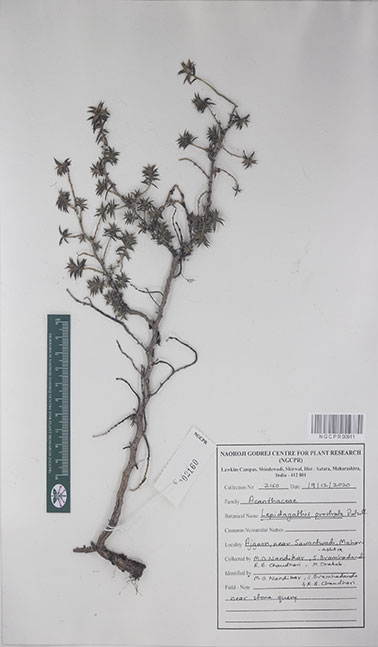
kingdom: Plantae
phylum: Tracheophyta
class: Magnoliopsida
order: Lamiales
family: Acanthaceae
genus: Lepidagathis
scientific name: Lepidagathis prostrata
